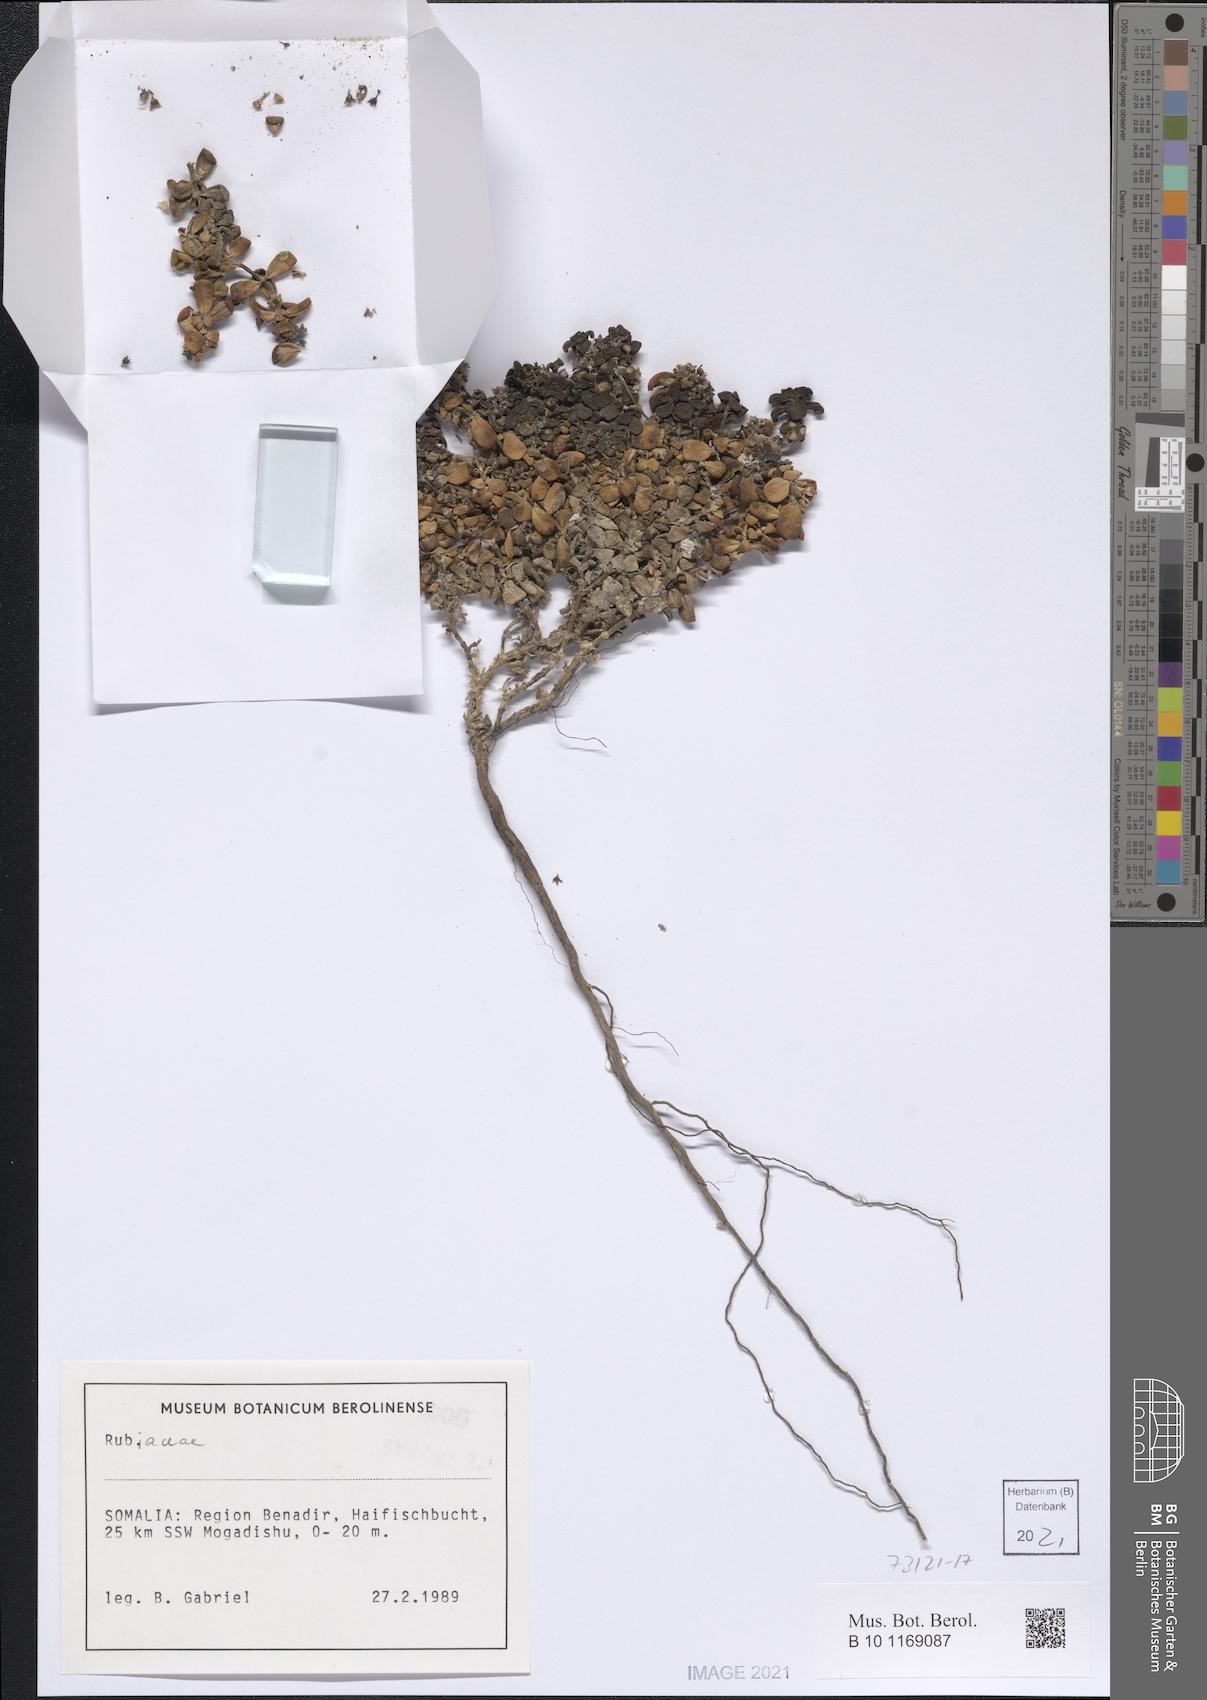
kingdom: Plantae
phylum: Tracheophyta
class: Magnoliopsida
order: Gentianales
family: Rubiaceae
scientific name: Rubiaceae
